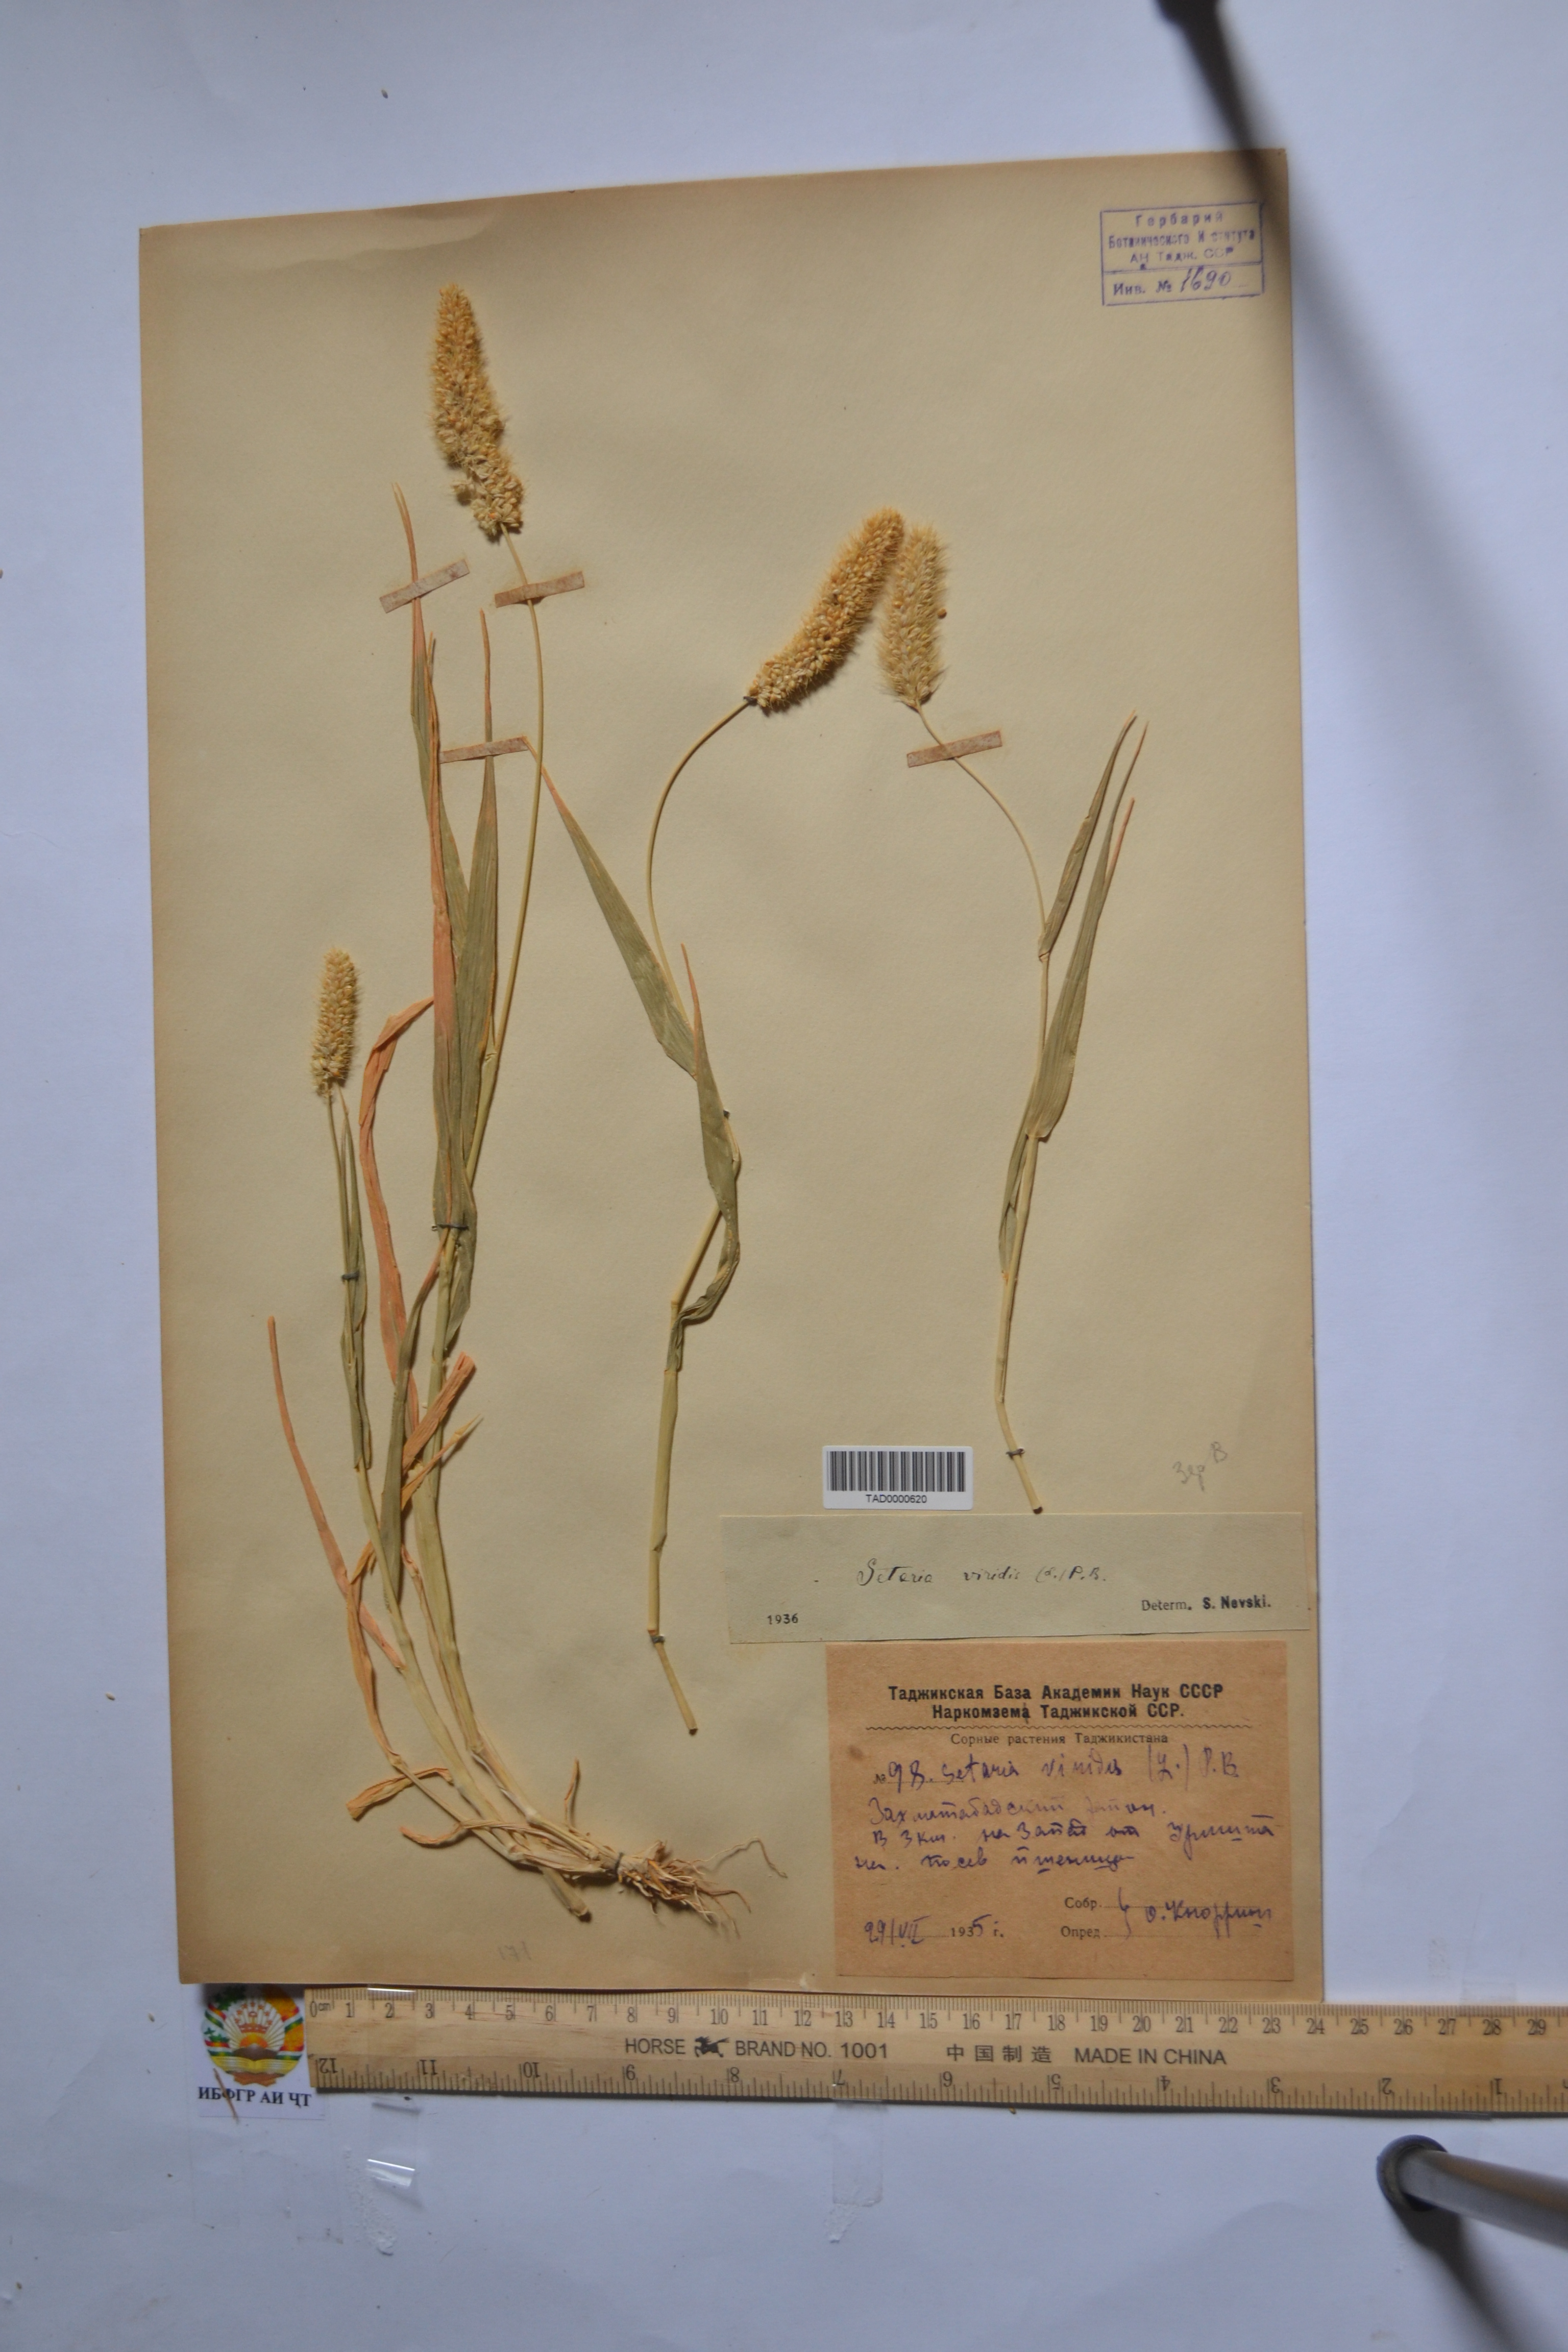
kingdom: Plantae
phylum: Tracheophyta
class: Liliopsida
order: Poales
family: Poaceae
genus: Setaria
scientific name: Setaria viridis
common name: Green bristlegrass
